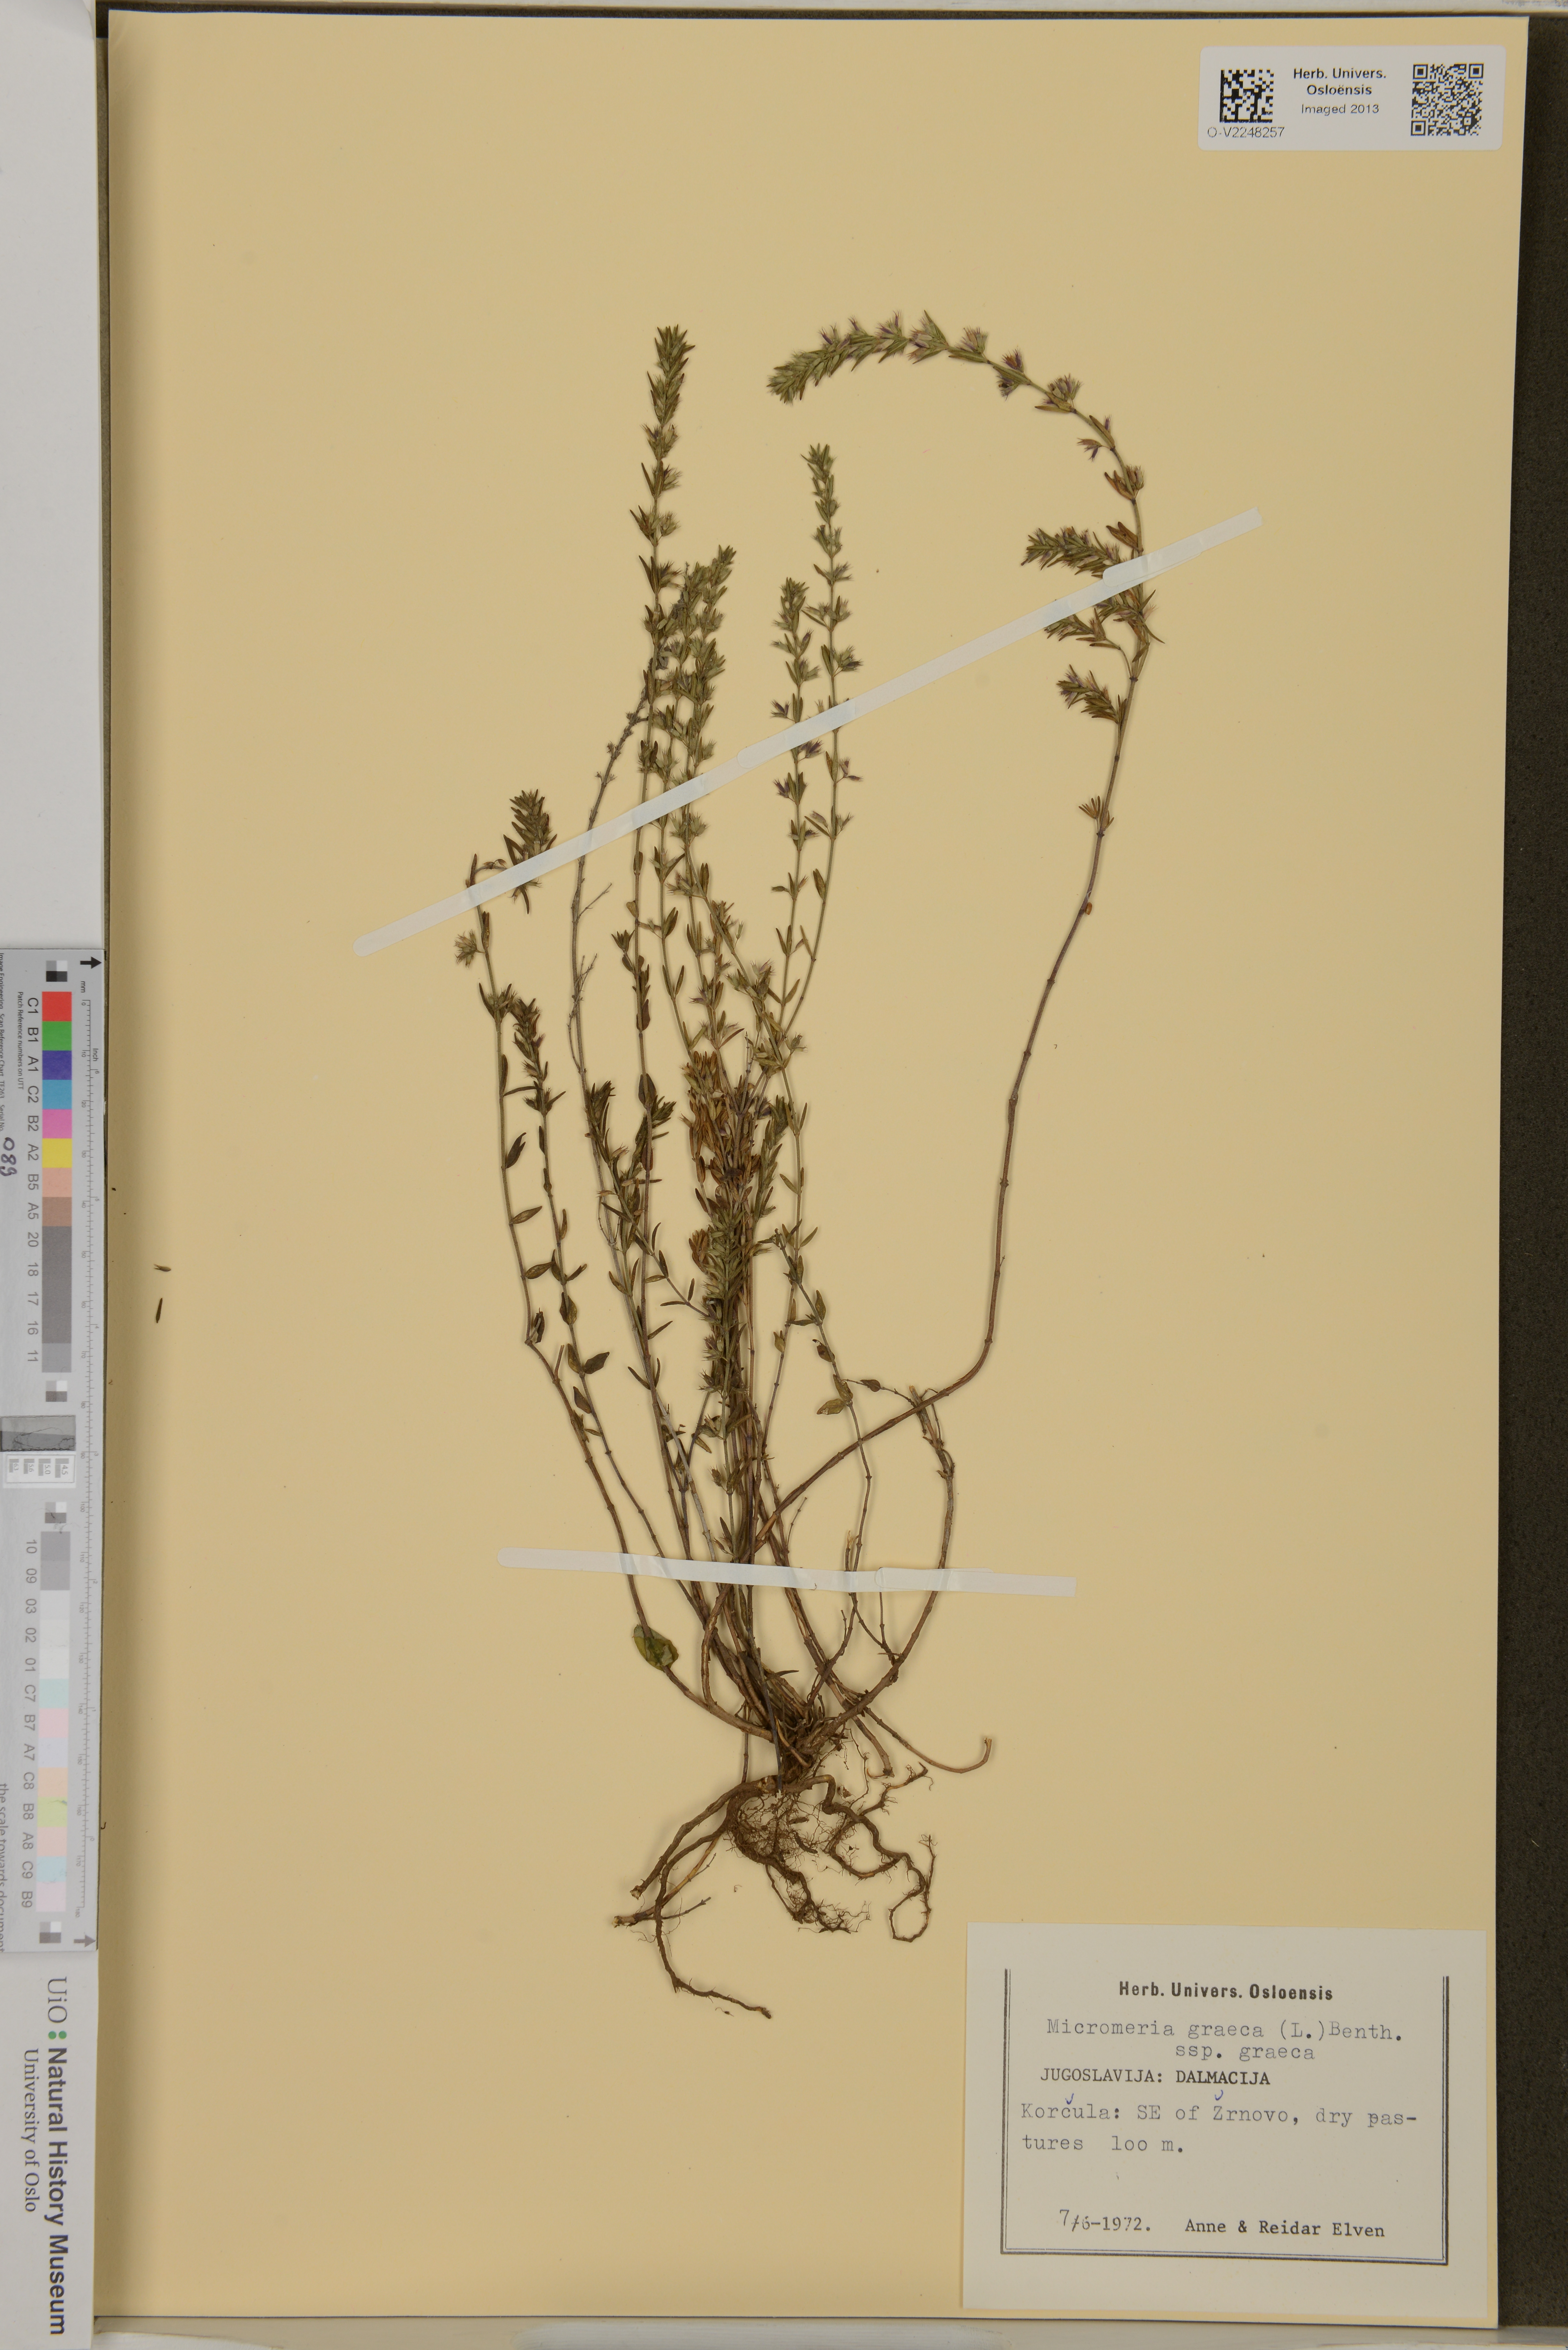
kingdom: Plantae
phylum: Tracheophyta
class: Magnoliopsida
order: Lamiales
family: Lamiaceae
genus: Micromeria
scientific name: Micromeria graeca
